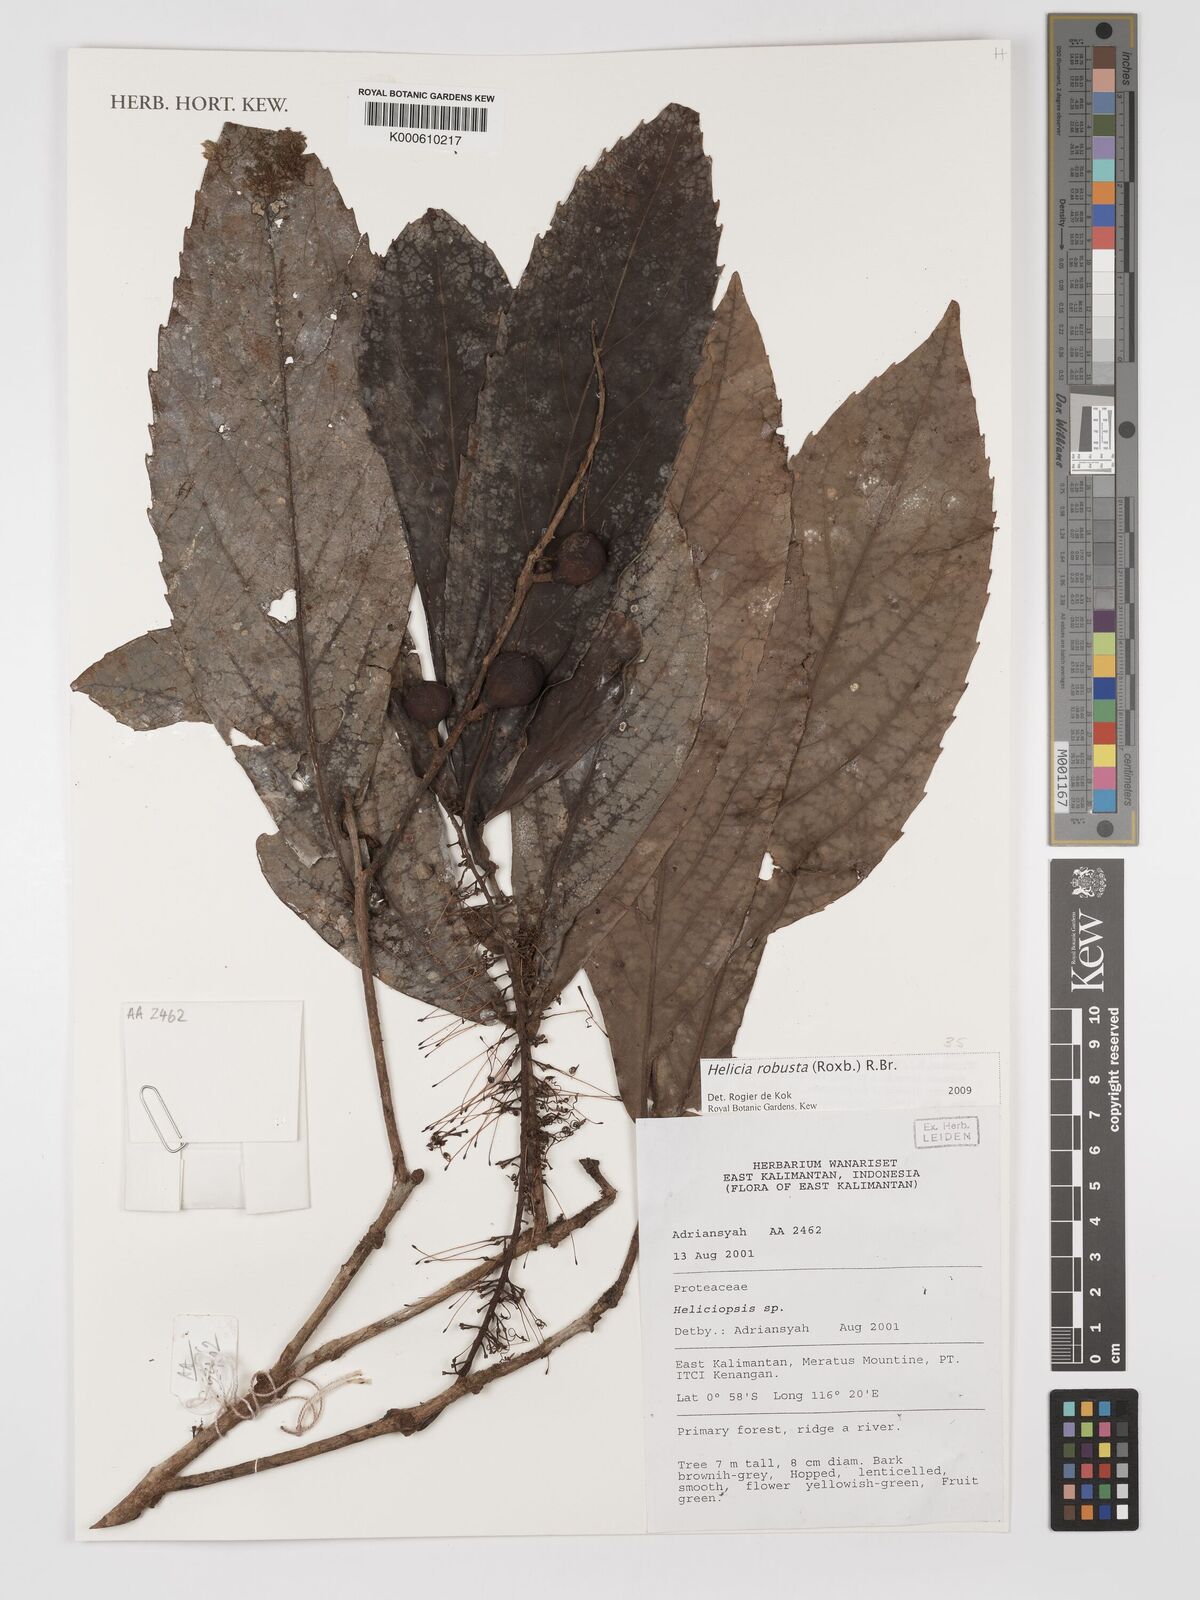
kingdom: Plantae
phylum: Tracheophyta
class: Magnoliopsida
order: Proteales
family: Proteaceae
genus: Helicia
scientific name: Helicia
